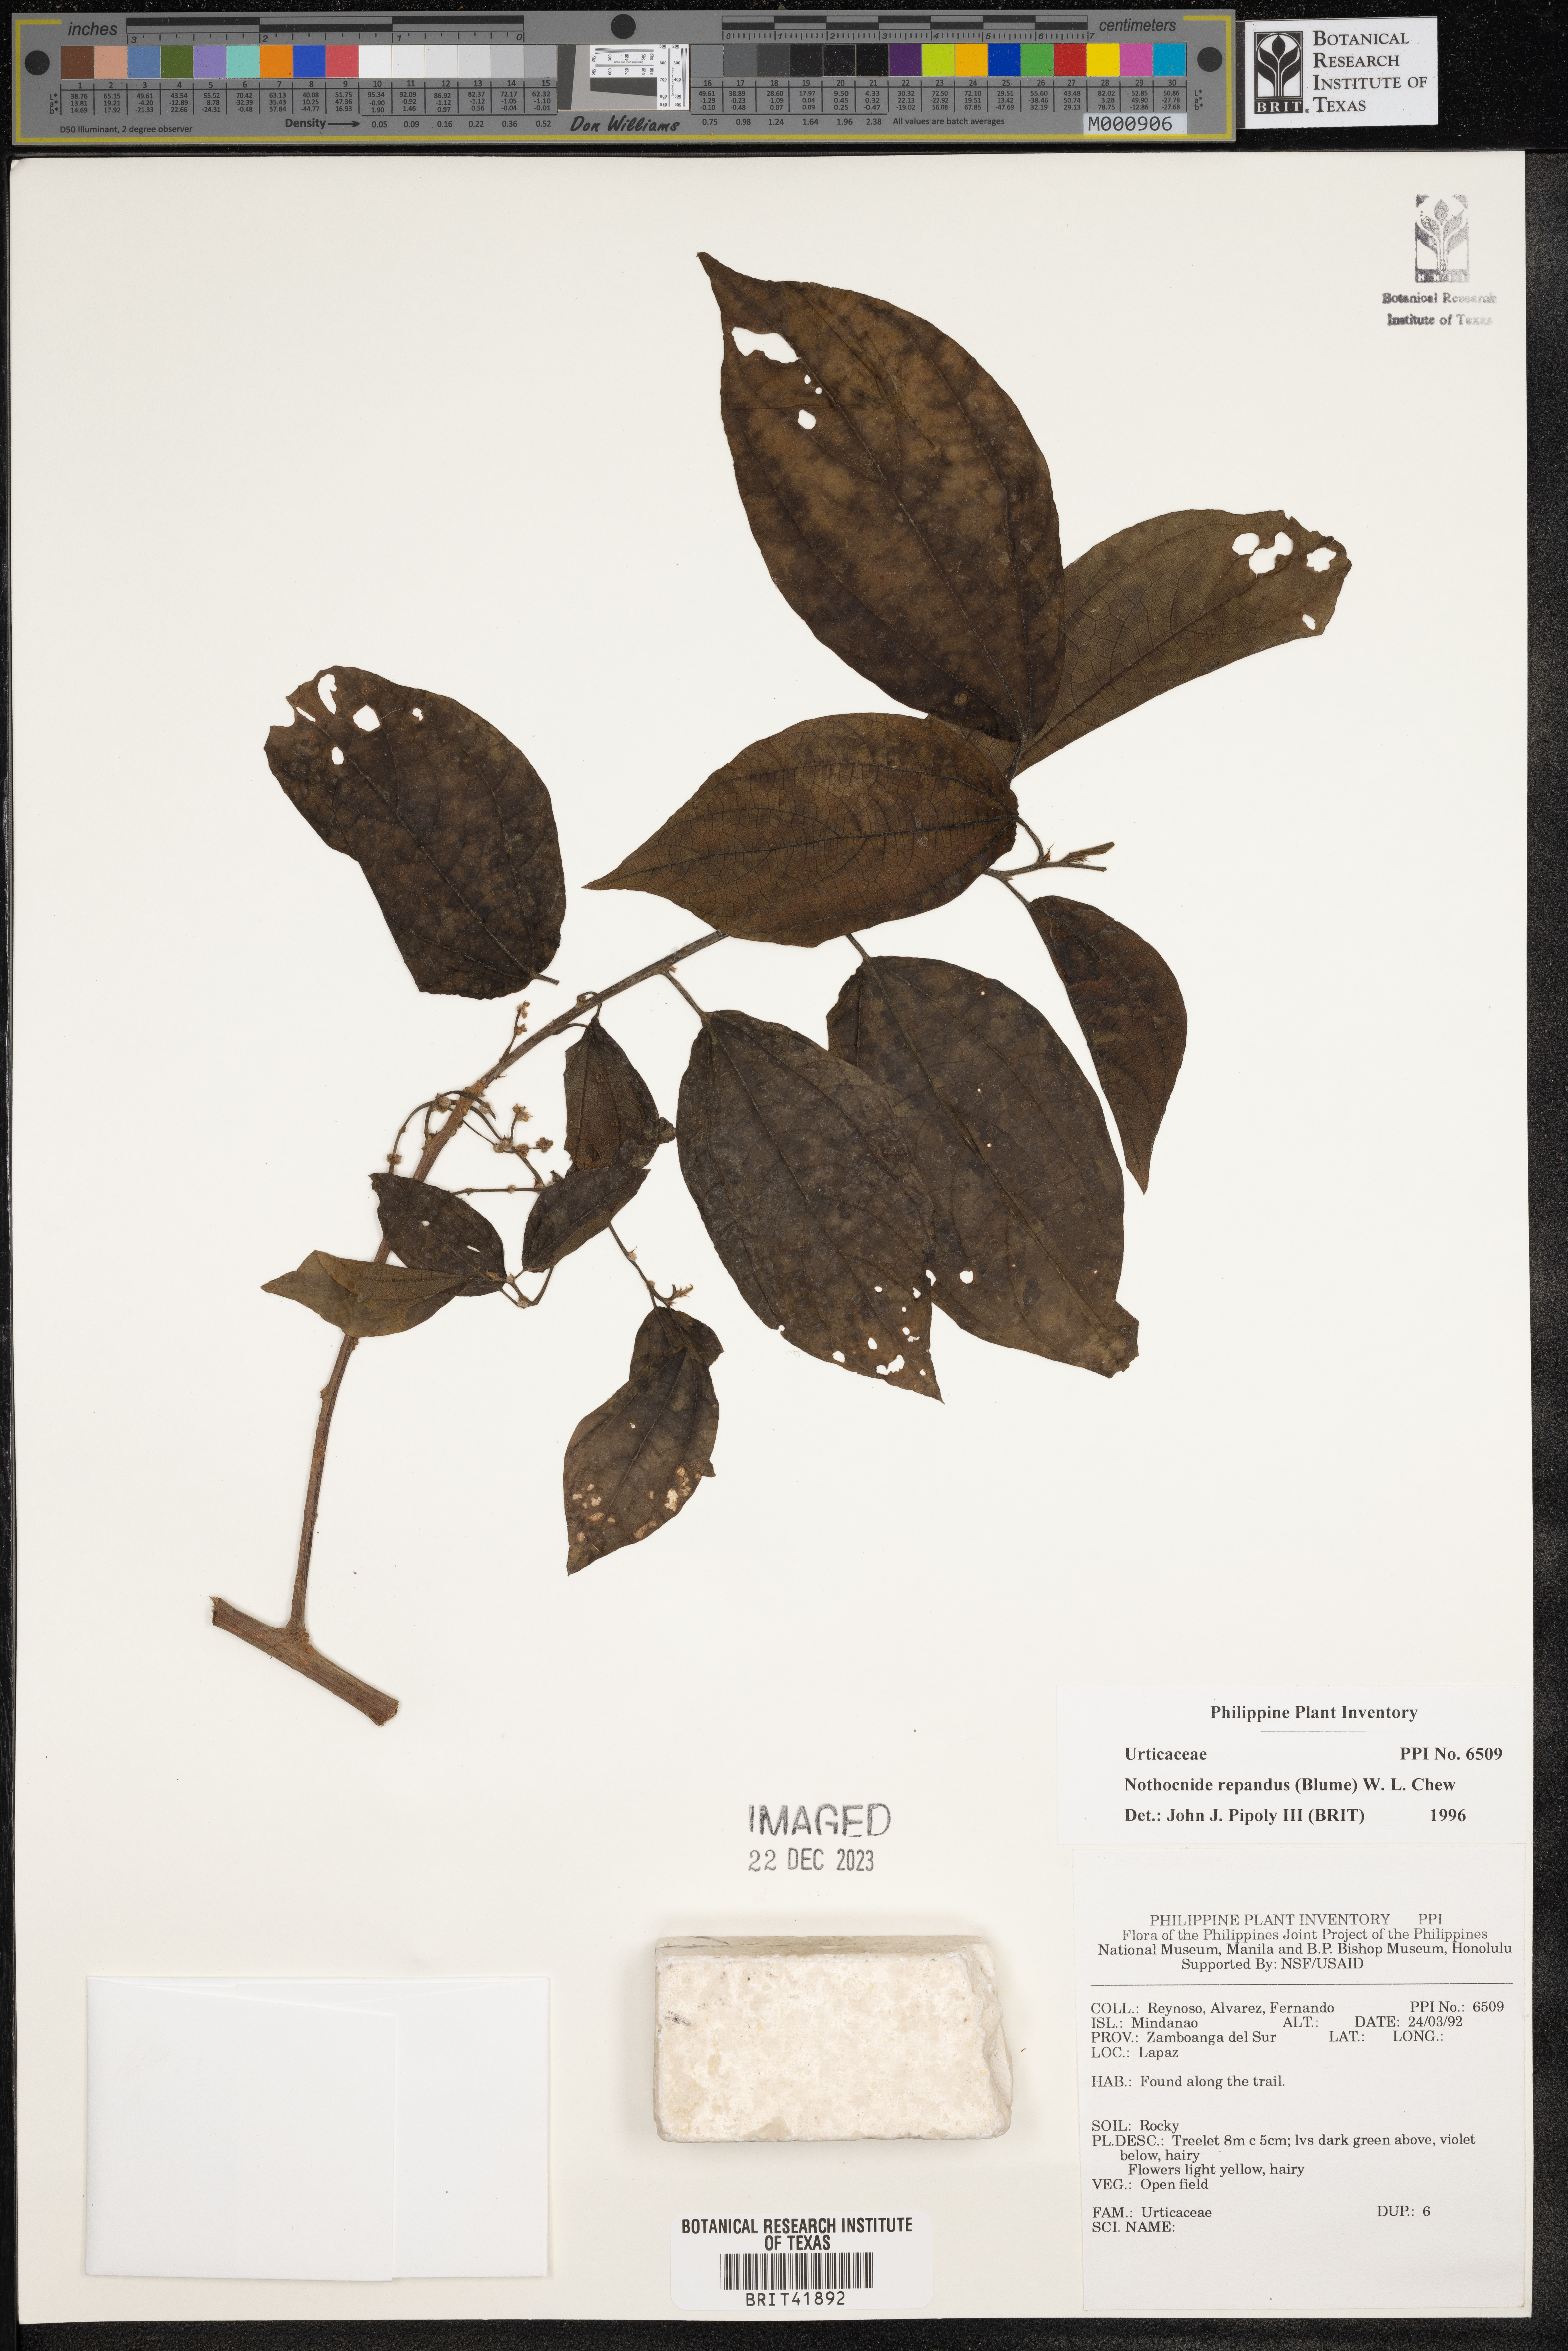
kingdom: Plantae
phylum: Tracheophyta
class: Magnoliopsida
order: Rosales
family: Urticaceae
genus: Nothocnide
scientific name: Nothocnide repanda
